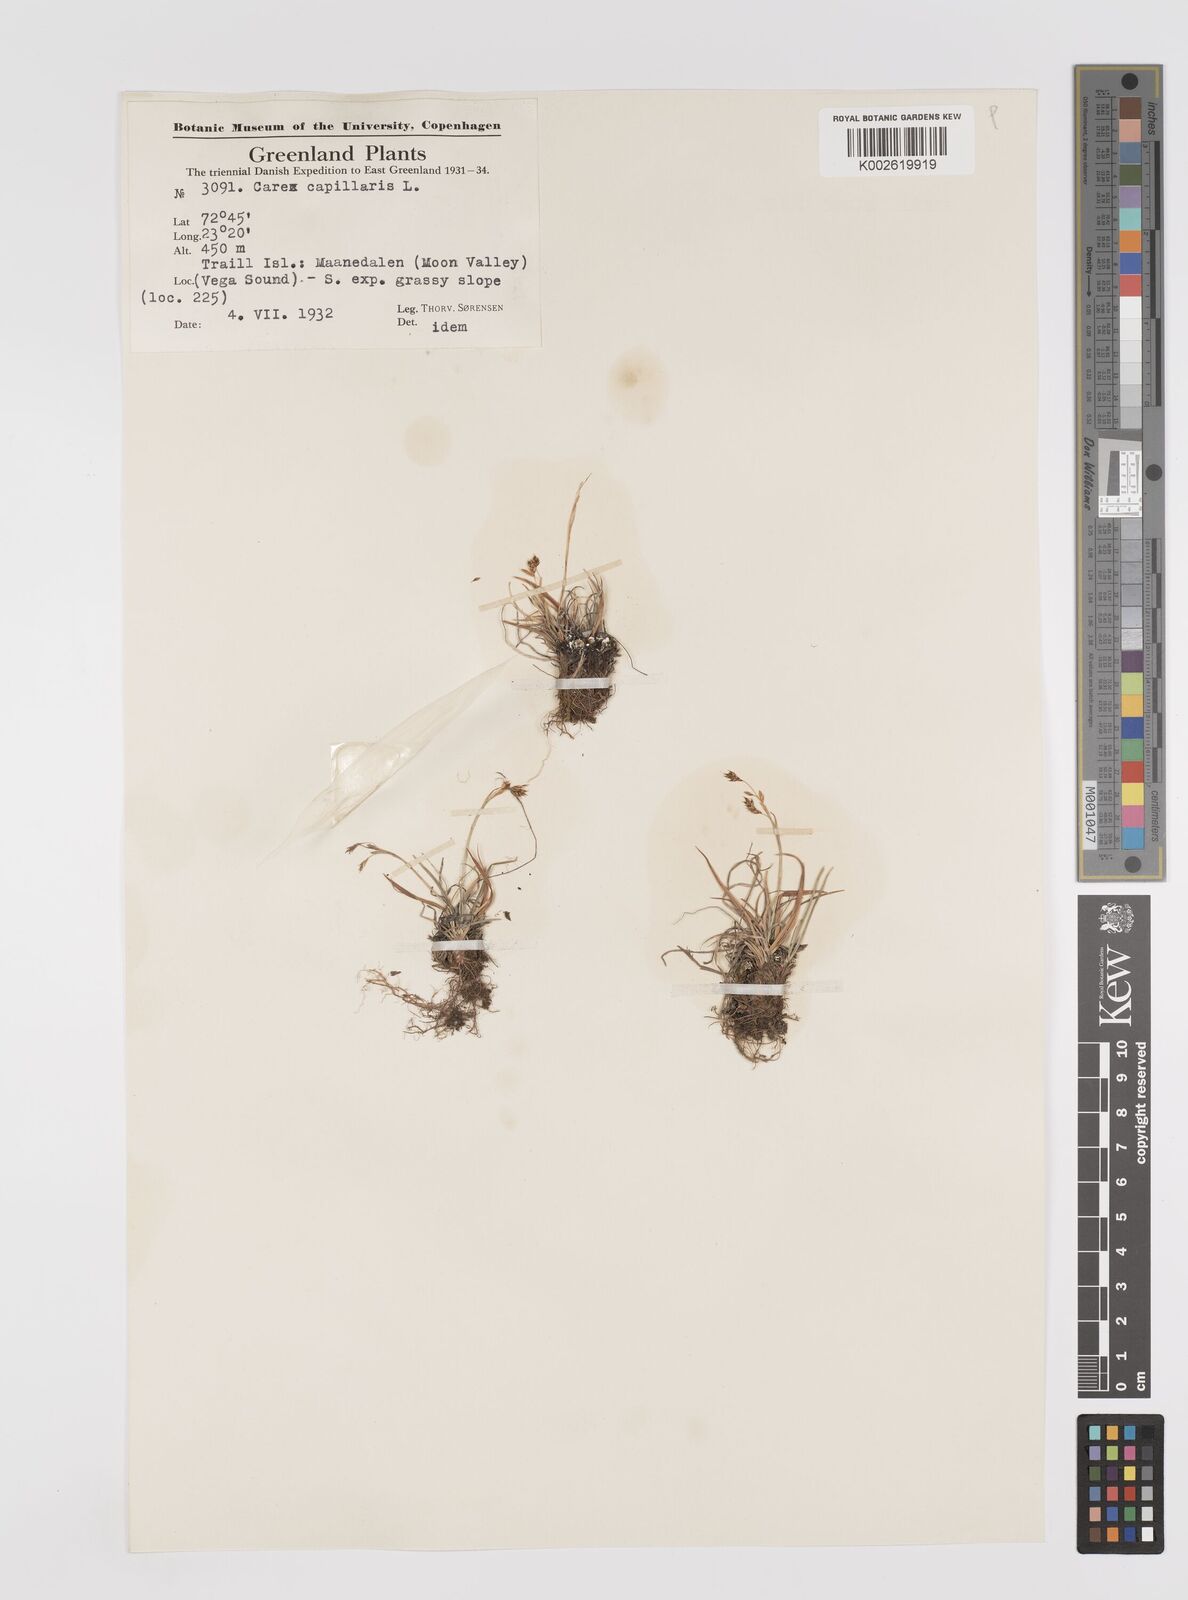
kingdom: Plantae
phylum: Tracheophyta
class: Liliopsida
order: Poales
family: Cyperaceae
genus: Carex
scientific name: Carex capillaris
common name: Hair sedge
